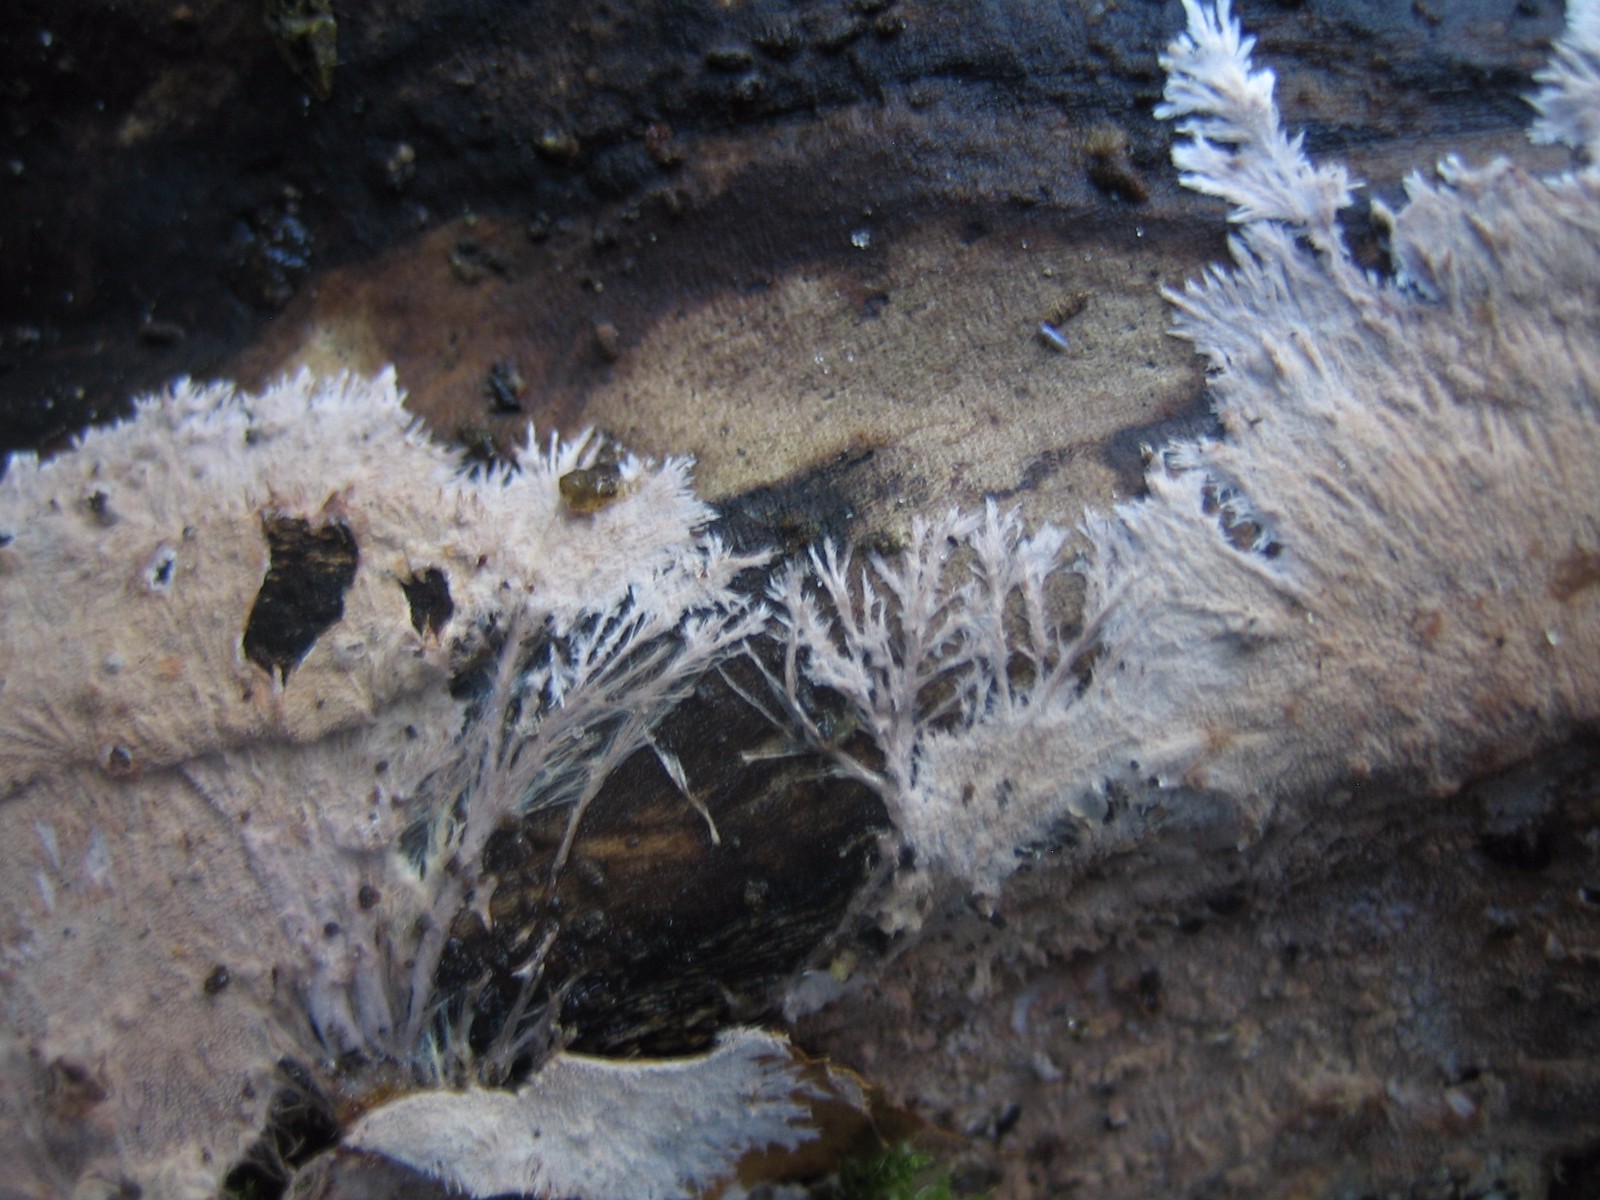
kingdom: Fungi
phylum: Basidiomycota
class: Agaricomycetes
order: Polyporales
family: Steccherinaceae
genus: Steccherinum
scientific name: Steccherinum fimbriatum
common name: trådet skønpig
